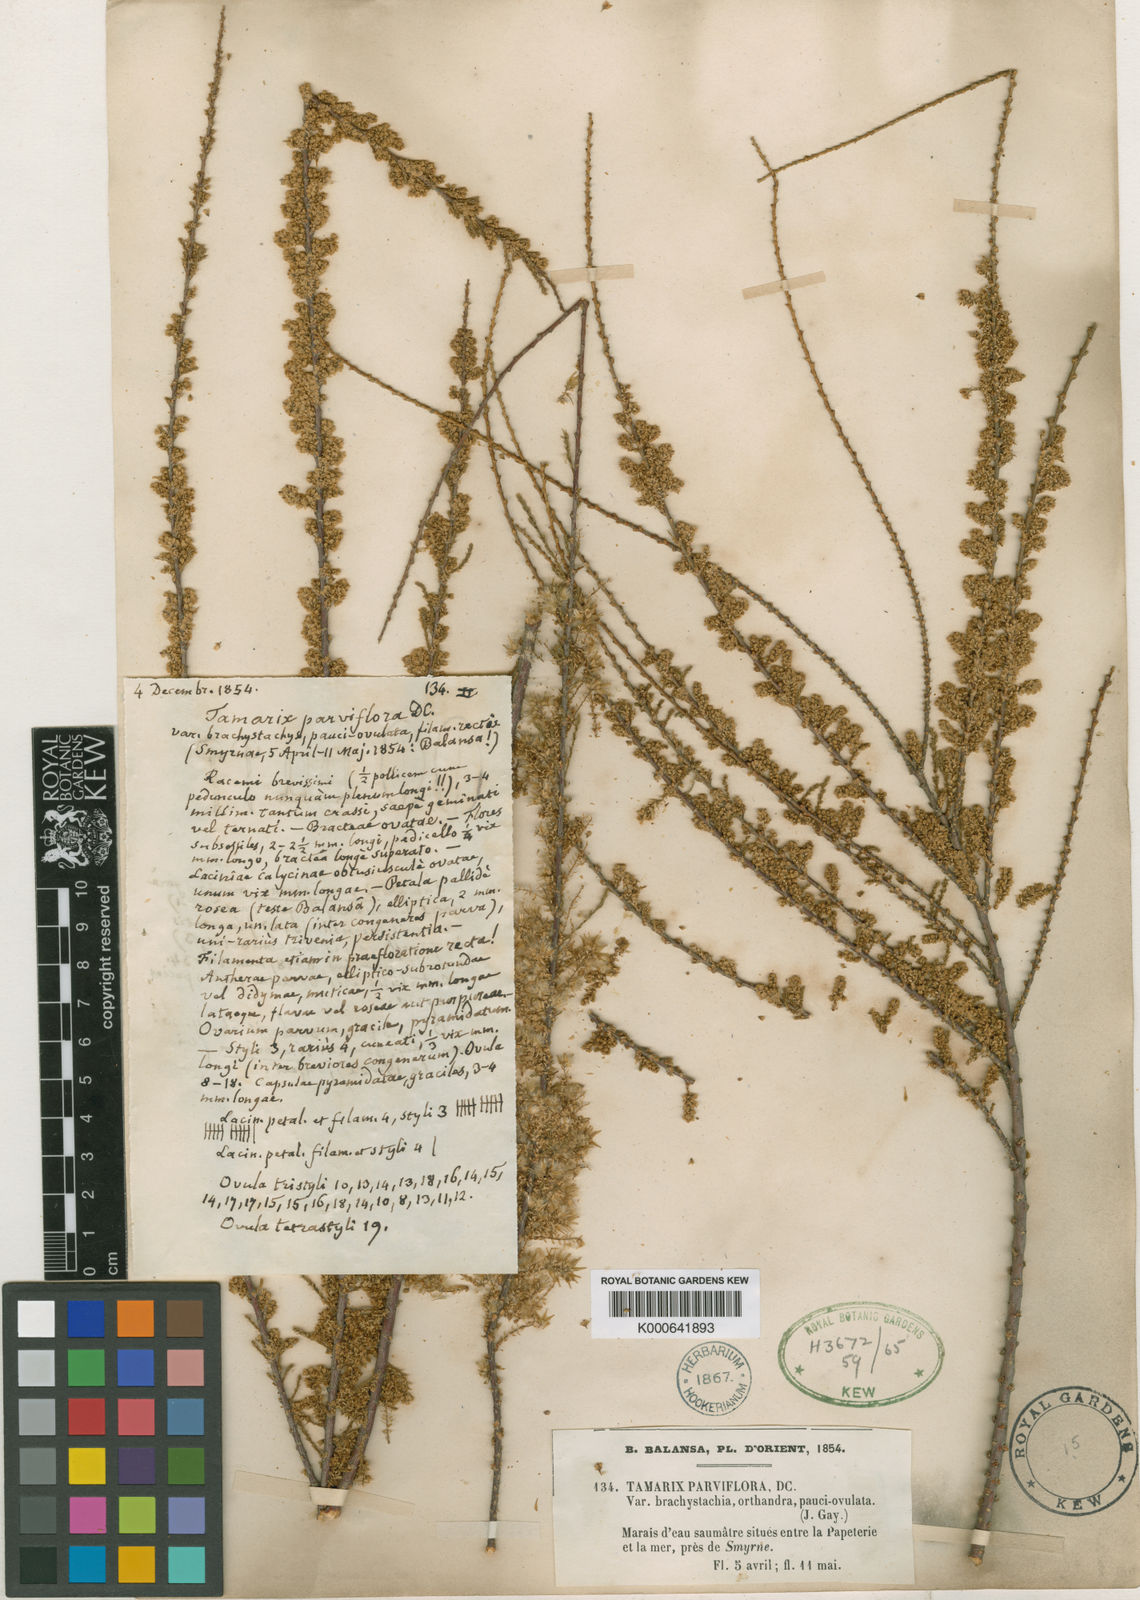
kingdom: Plantae
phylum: Tracheophyta
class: Magnoliopsida
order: Caryophyllales
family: Tamaricaceae
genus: Tamarix
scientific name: Tamarix parviflora
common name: Smallflower tamarisk
